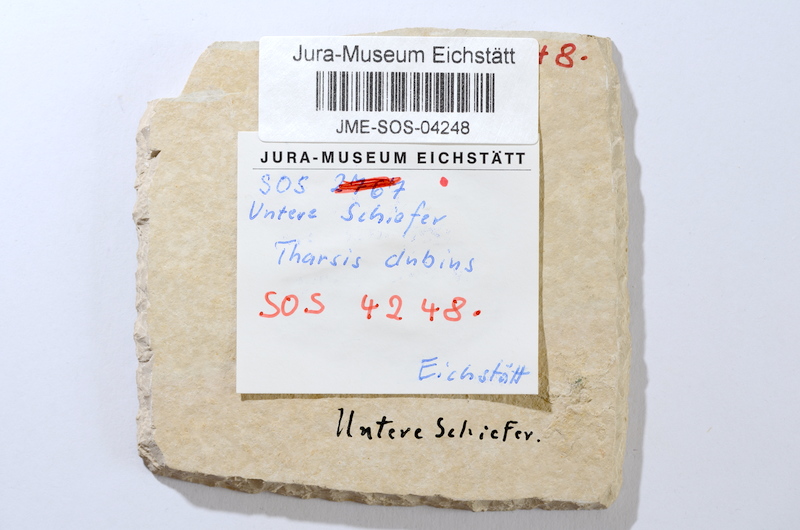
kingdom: Animalia
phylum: Chordata
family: Ascalaboidae
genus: Tharsis
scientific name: Tharsis dubius
